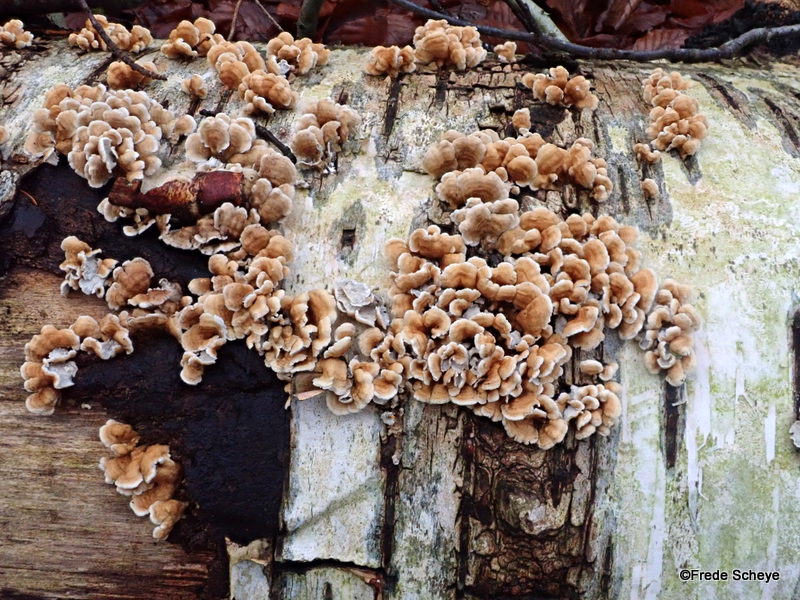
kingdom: Fungi
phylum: Basidiomycota
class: Agaricomycetes
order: Amylocorticiales
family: Amylocorticiaceae
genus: Plicaturopsis
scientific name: Plicaturopsis crispa
